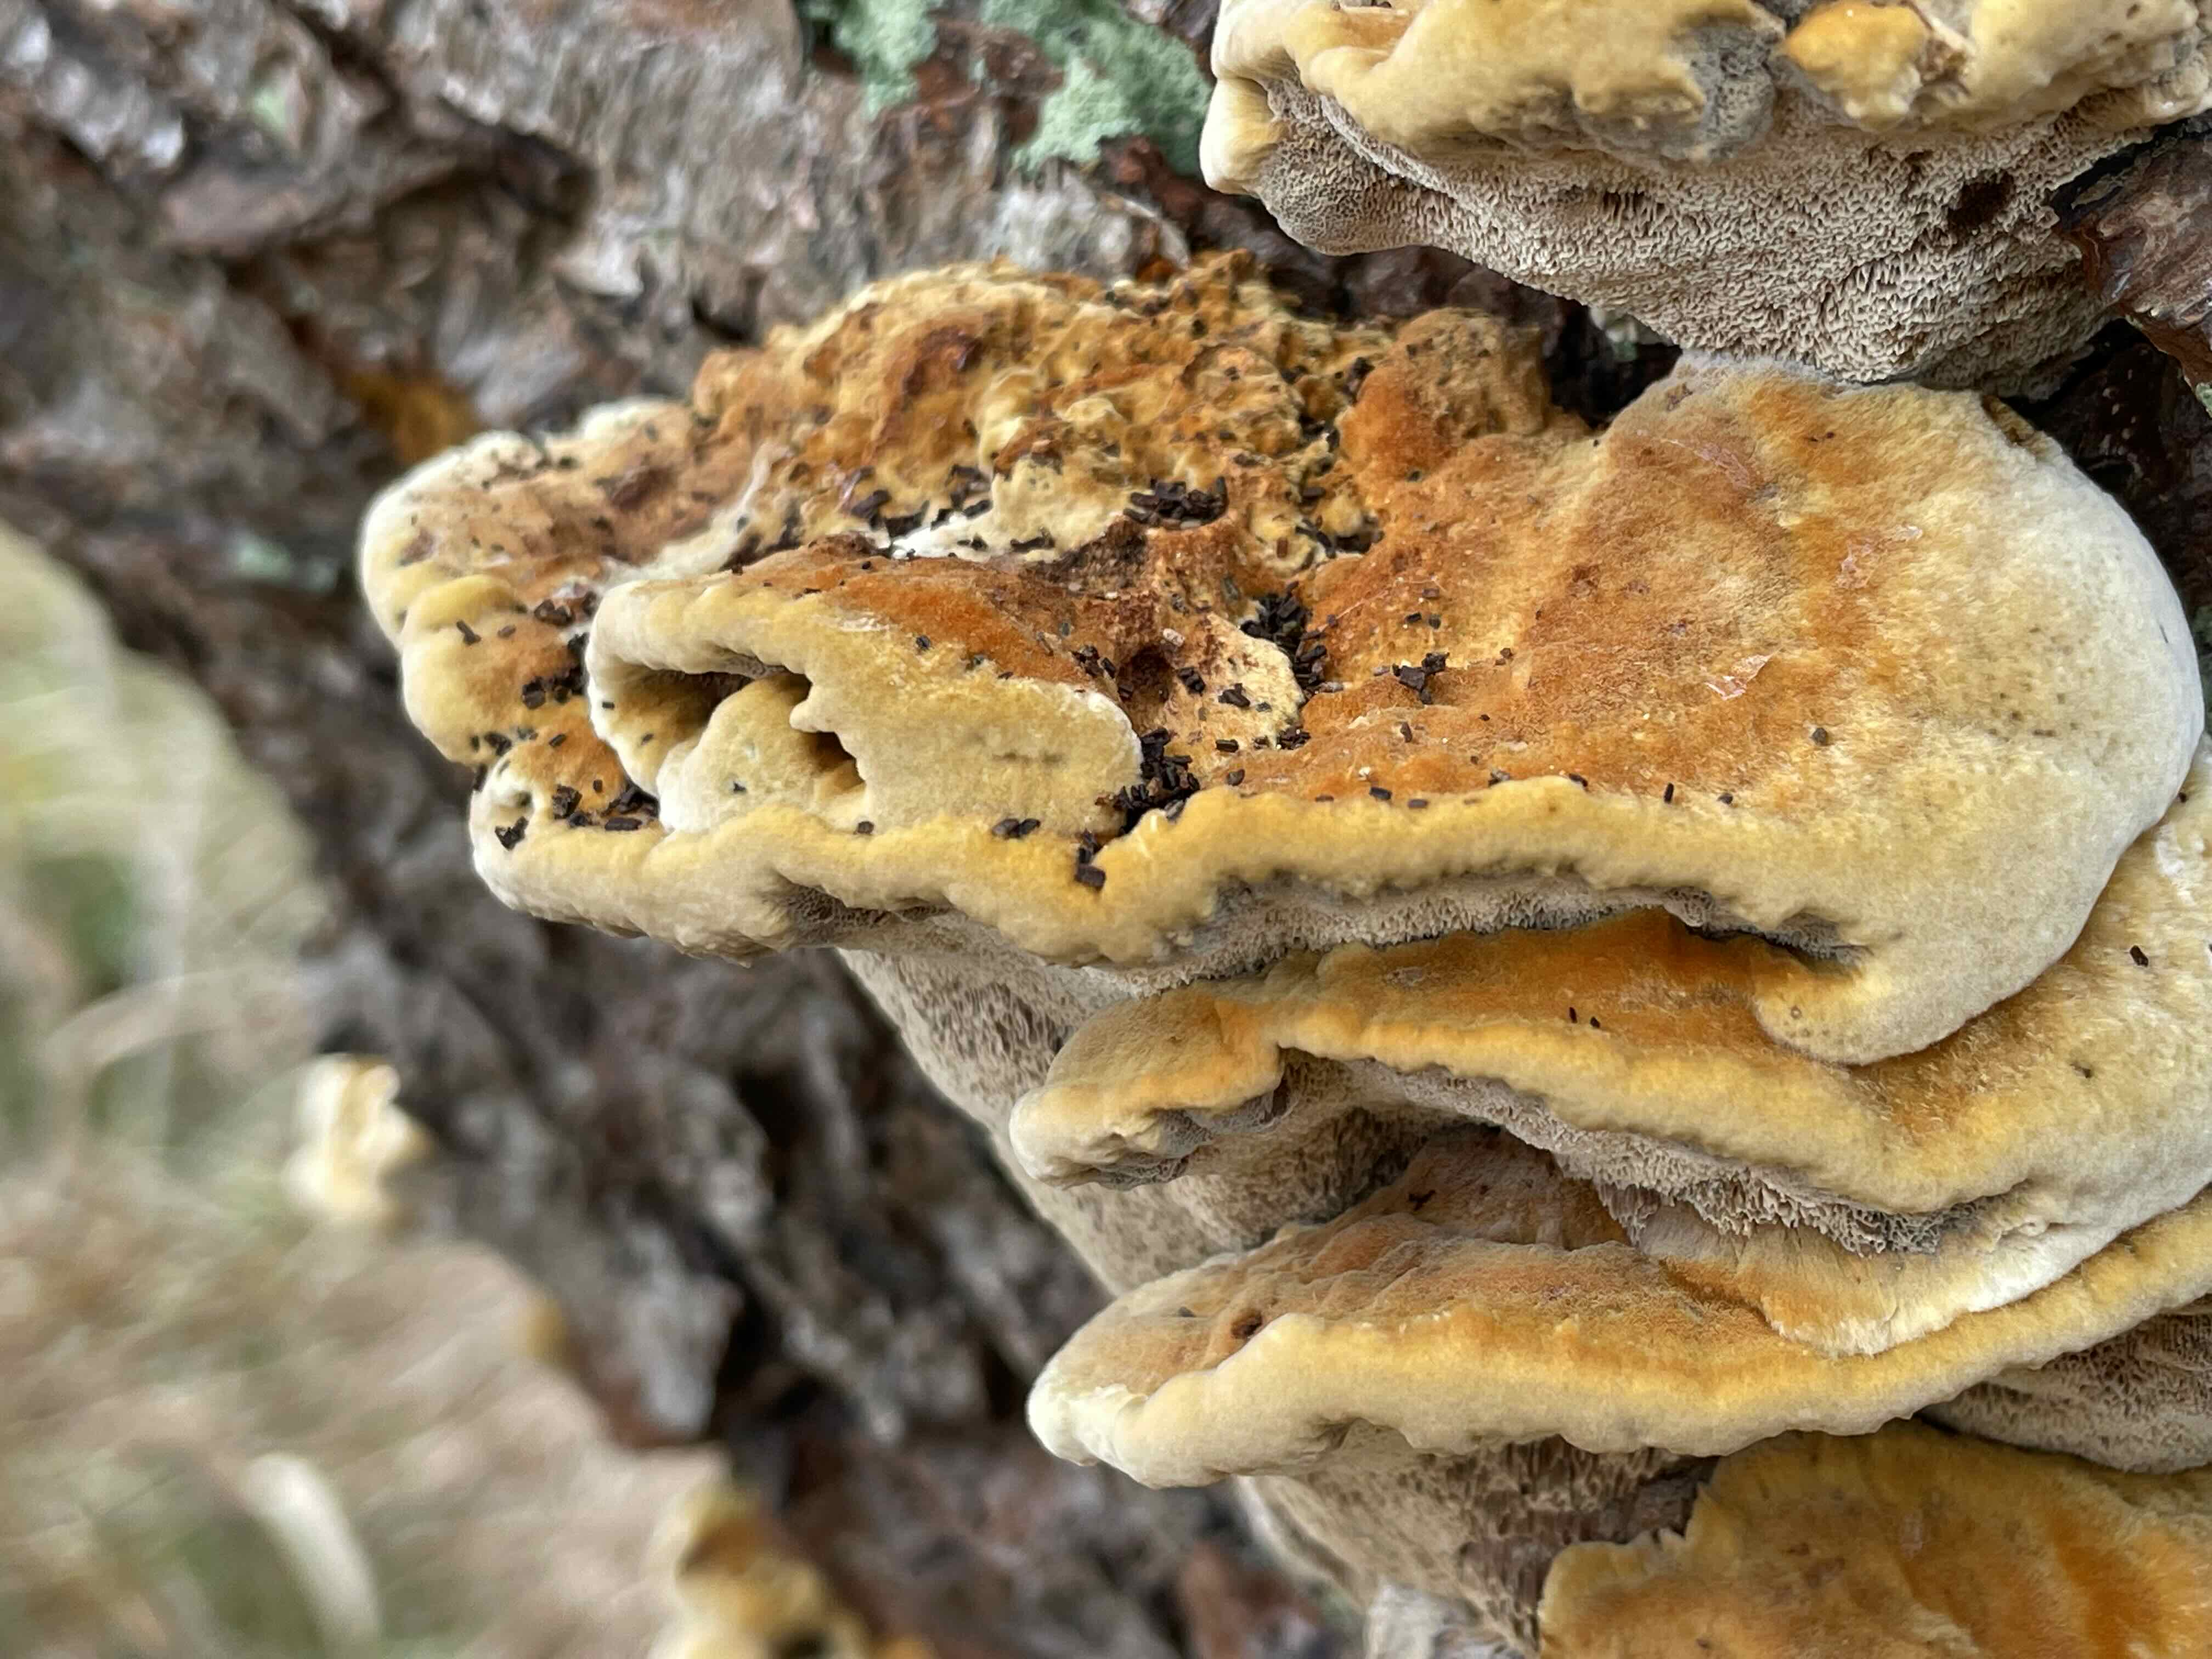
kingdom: Fungi
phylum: Basidiomycota
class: Agaricomycetes
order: Hymenochaetales
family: Hymenochaetaceae
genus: Xanthoporia
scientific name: Xanthoporia radiata
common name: elle-spejlporesvamp
